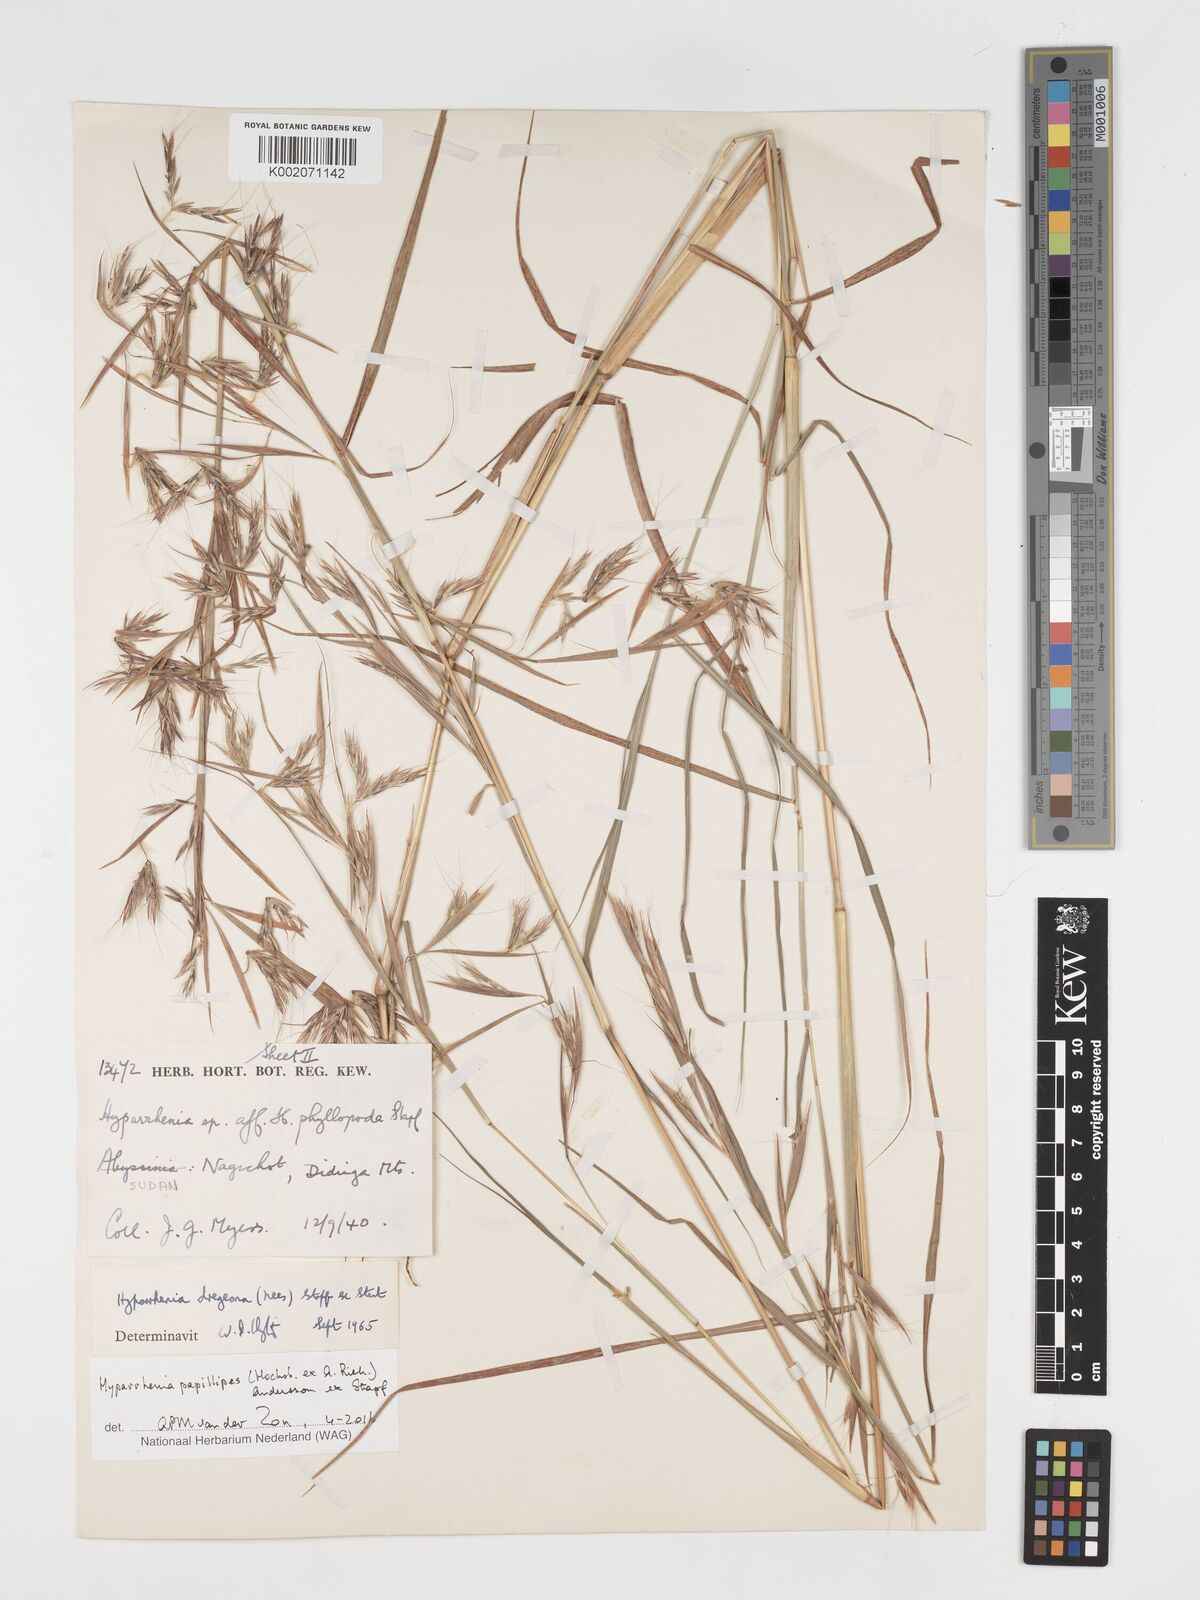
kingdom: Plantae
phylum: Tracheophyta
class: Liliopsida
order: Poales
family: Poaceae
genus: Hyparrhenia
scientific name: Hyparrhenia papillipes
